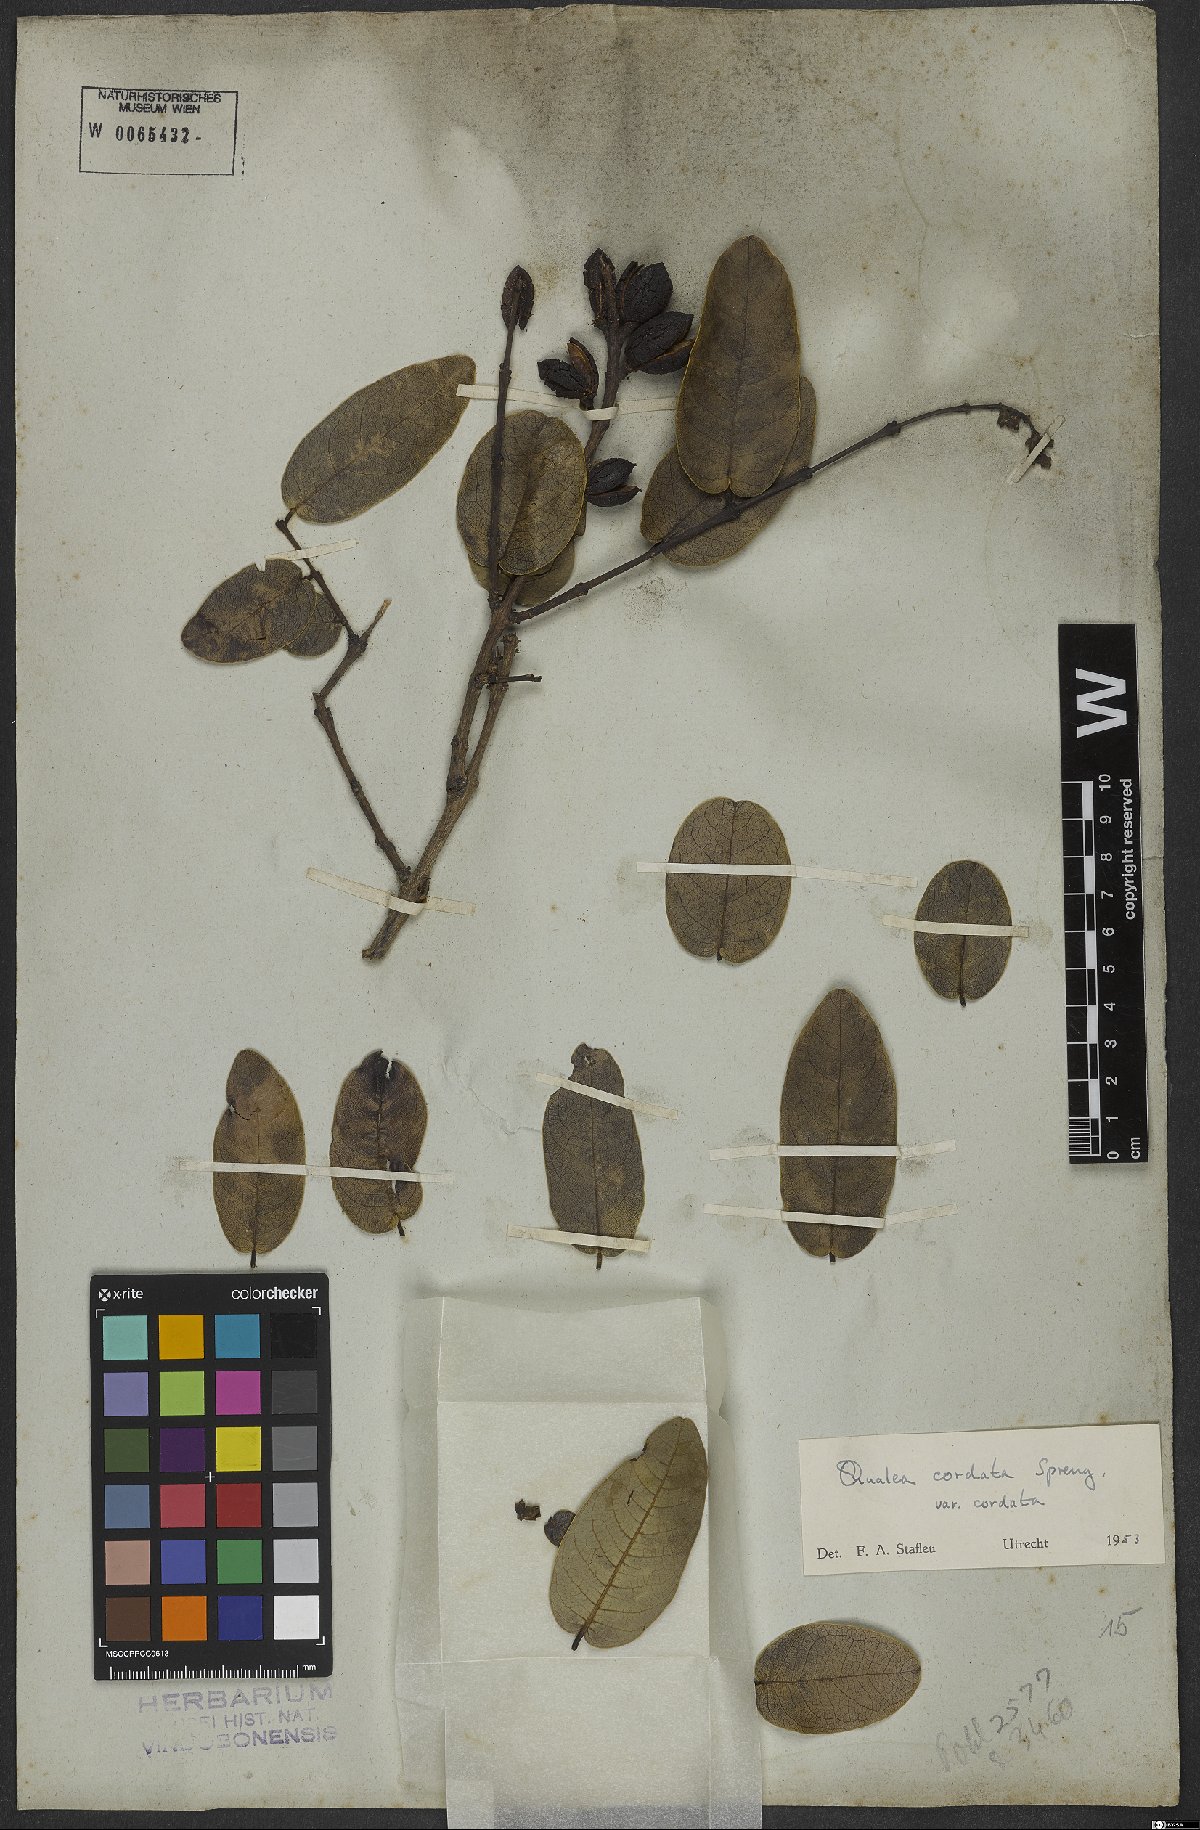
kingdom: Plantae
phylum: Tracheophyta
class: Magnoliopsida
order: Myrtales
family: Vochysiaceae
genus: Qualea
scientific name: Qualea cordata
